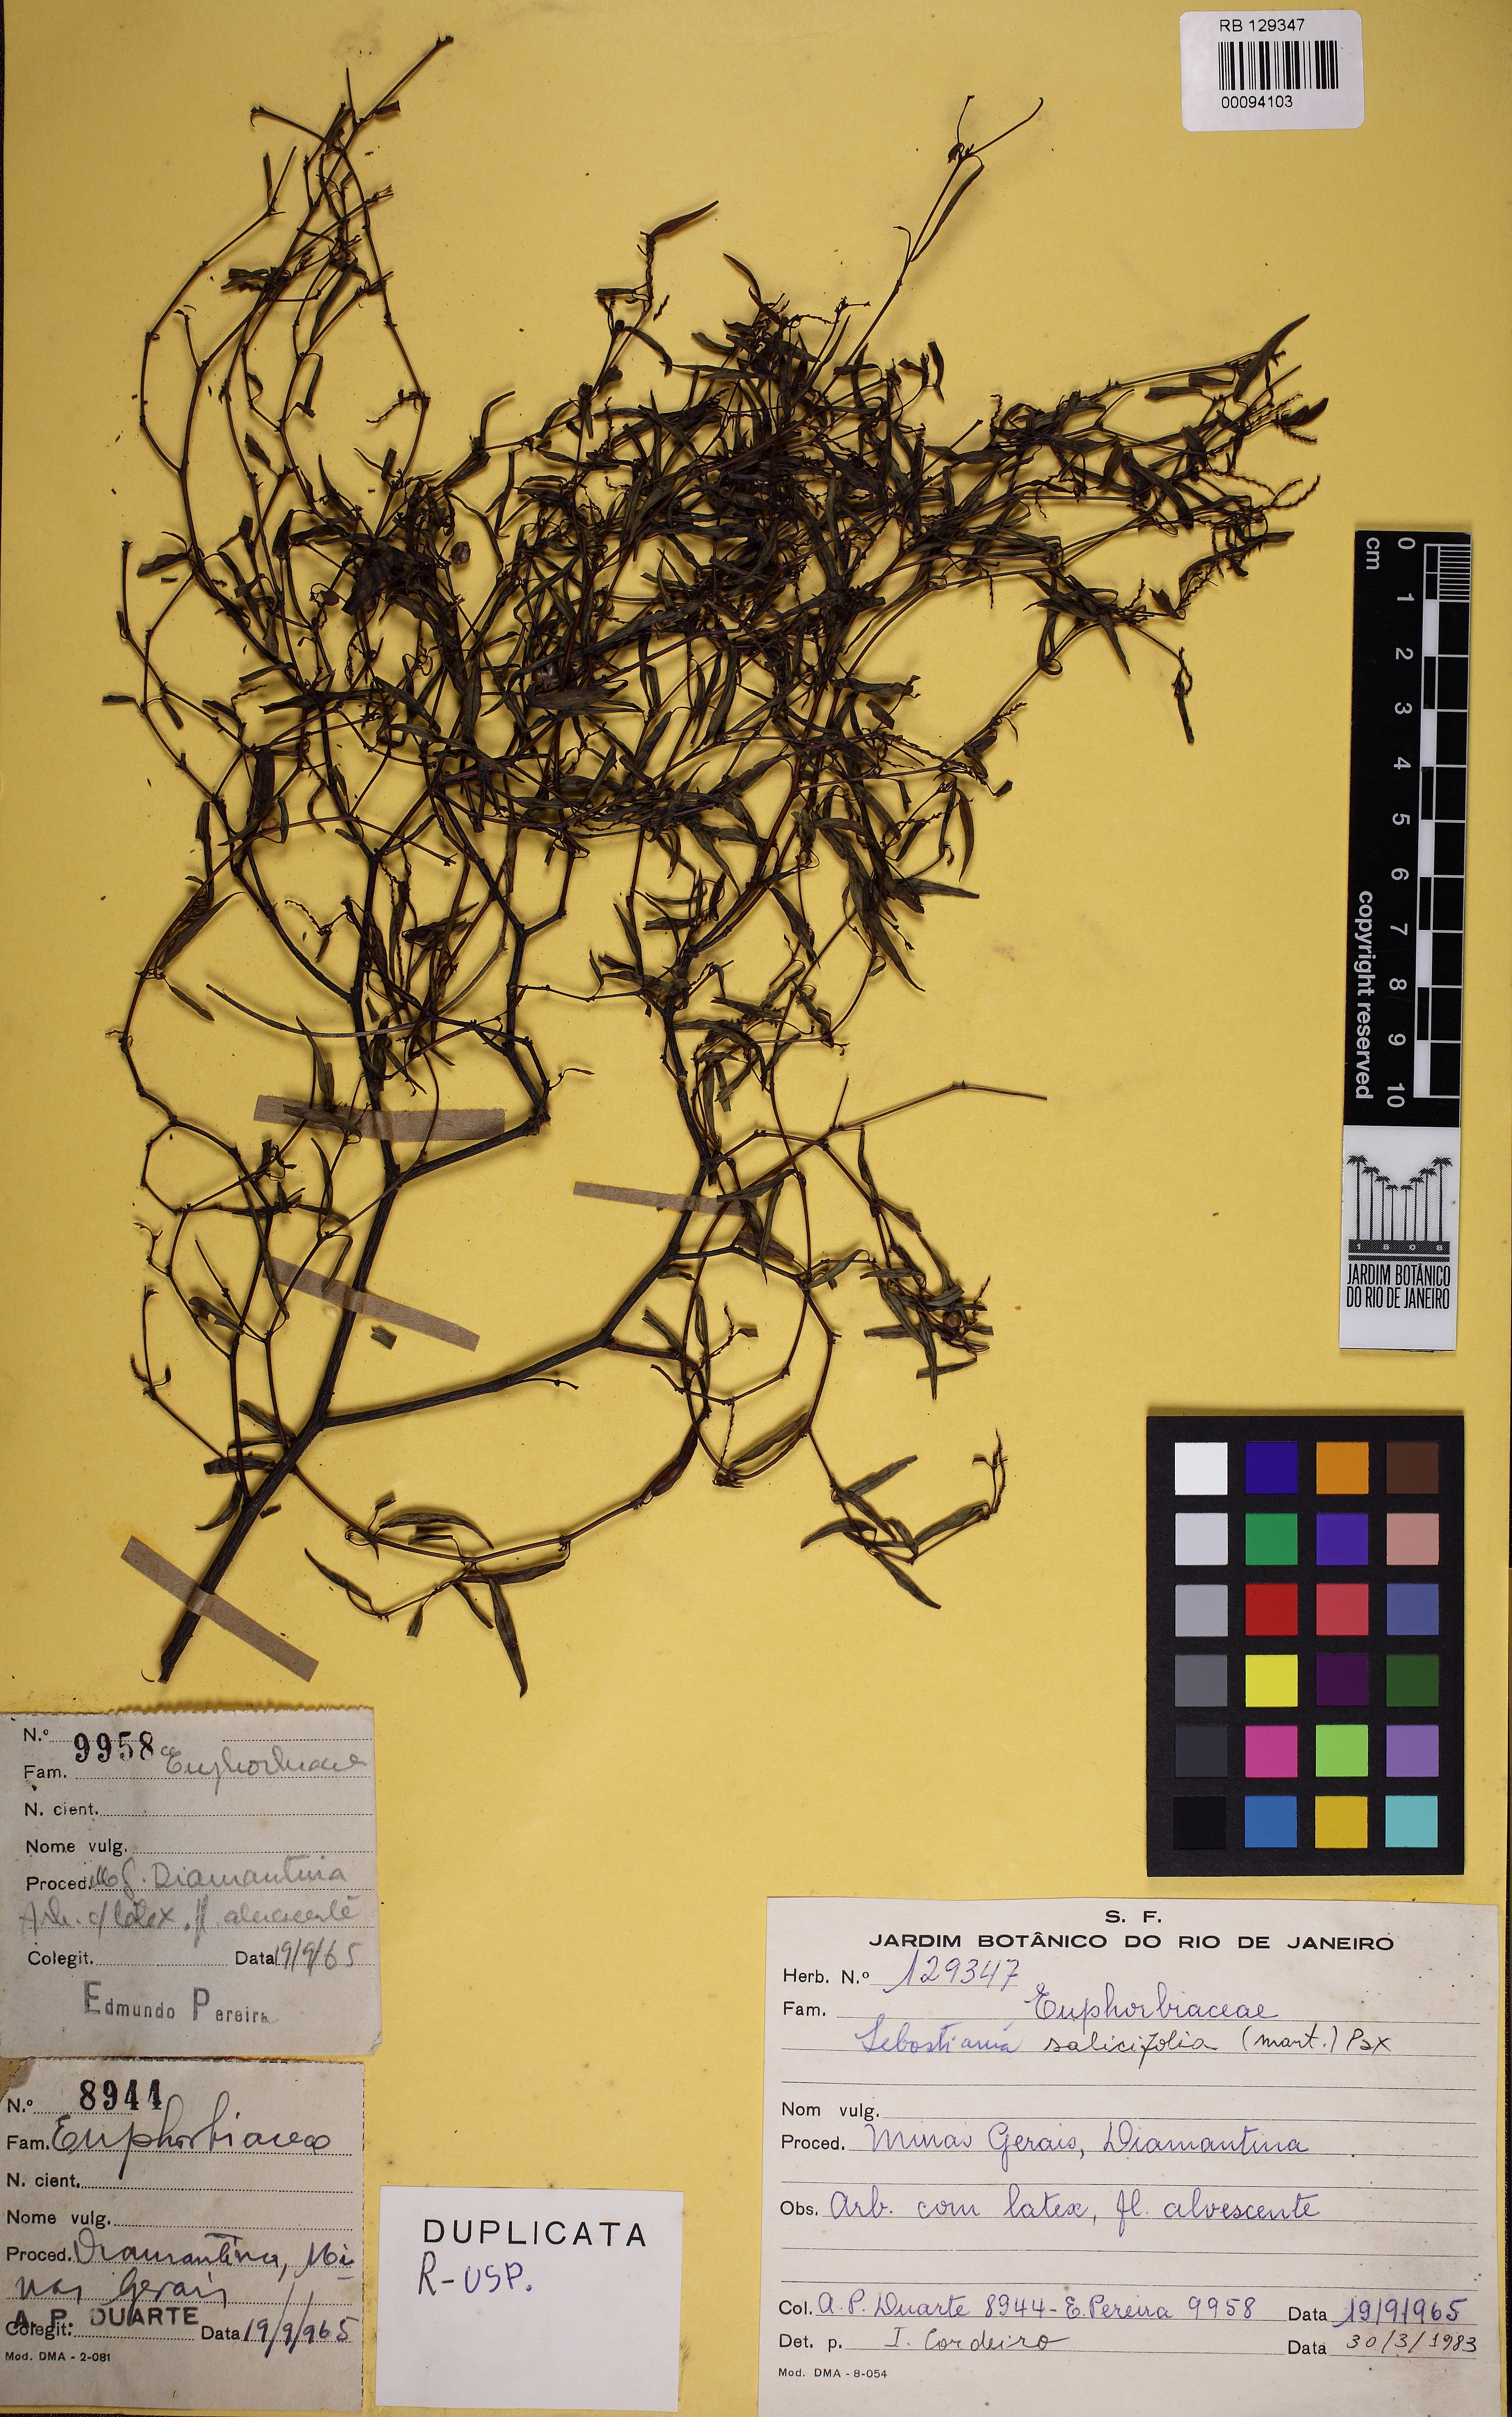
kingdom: Plantae
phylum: Tracheophyta
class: Magnoliopsida
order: Malpighiales
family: Euphorbiaceae
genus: Microstachys
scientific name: Microstachys salicifolia
